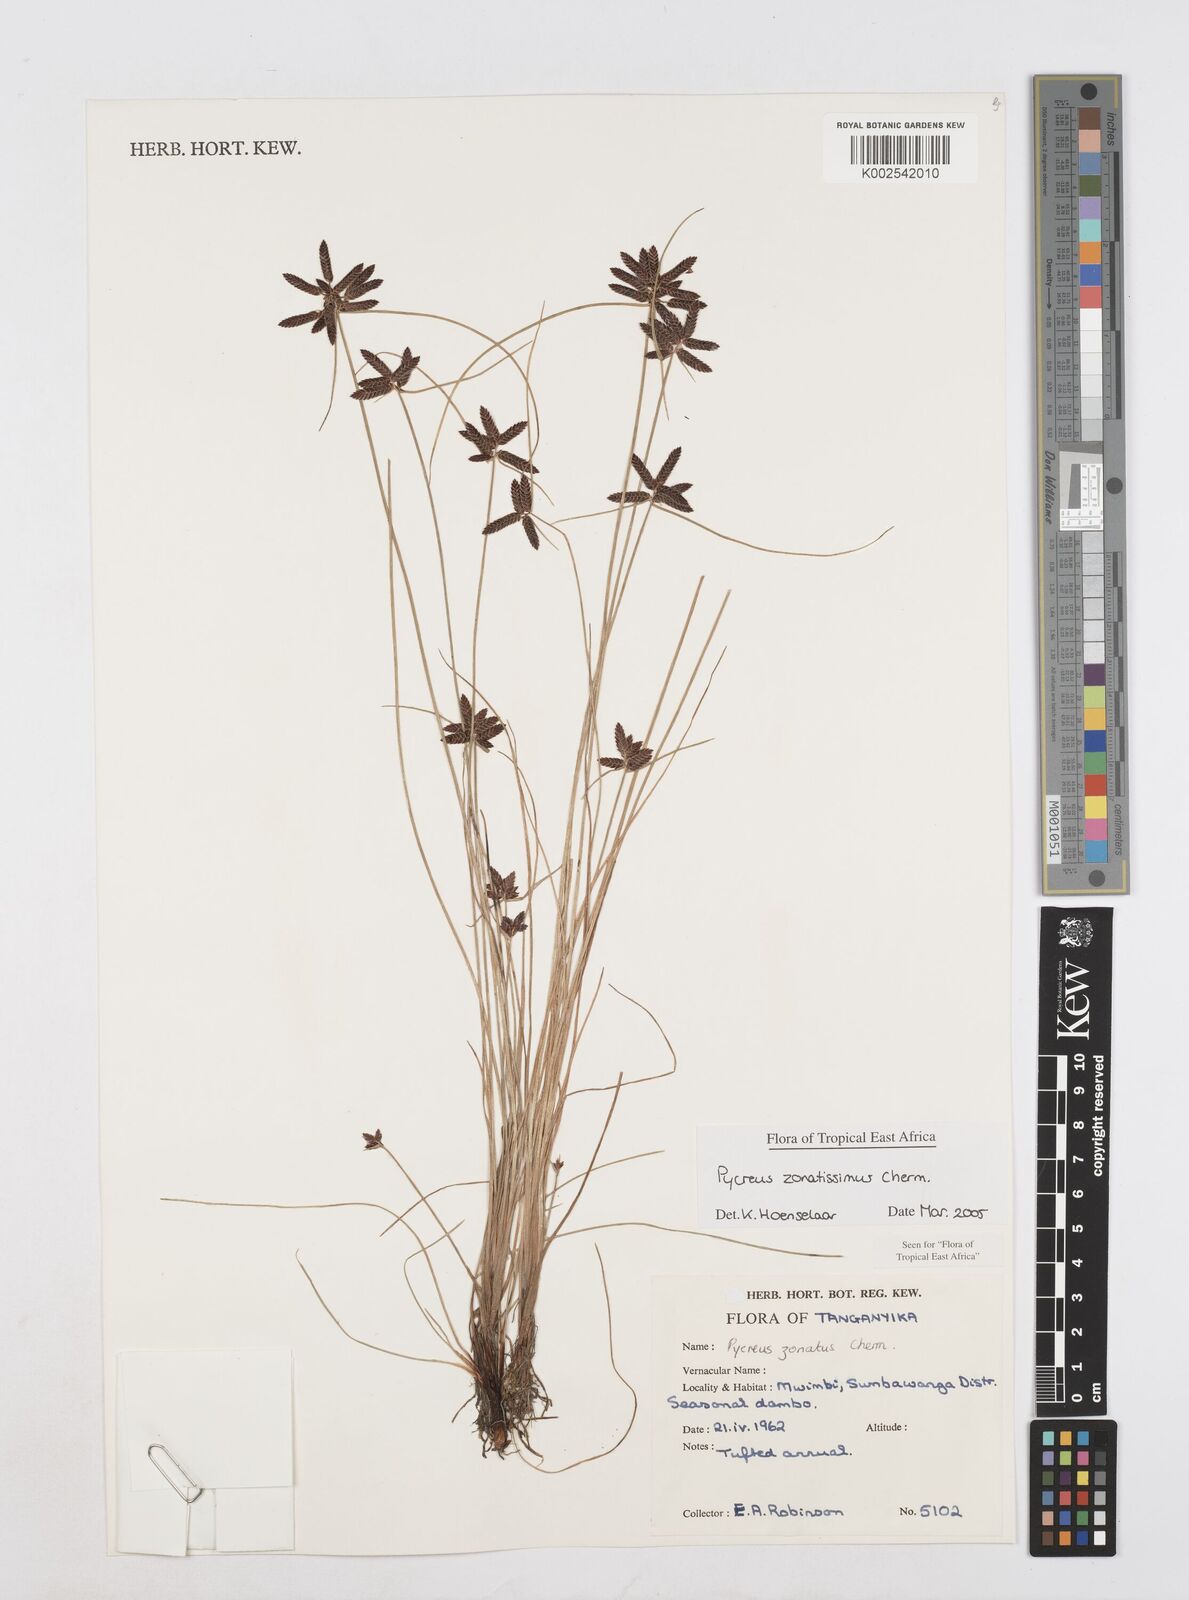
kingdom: Plantae
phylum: Tracheophyta
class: Liliopsida
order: Poales
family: Cyperaceae
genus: Cyperus
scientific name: Cyperus zonatissimus
